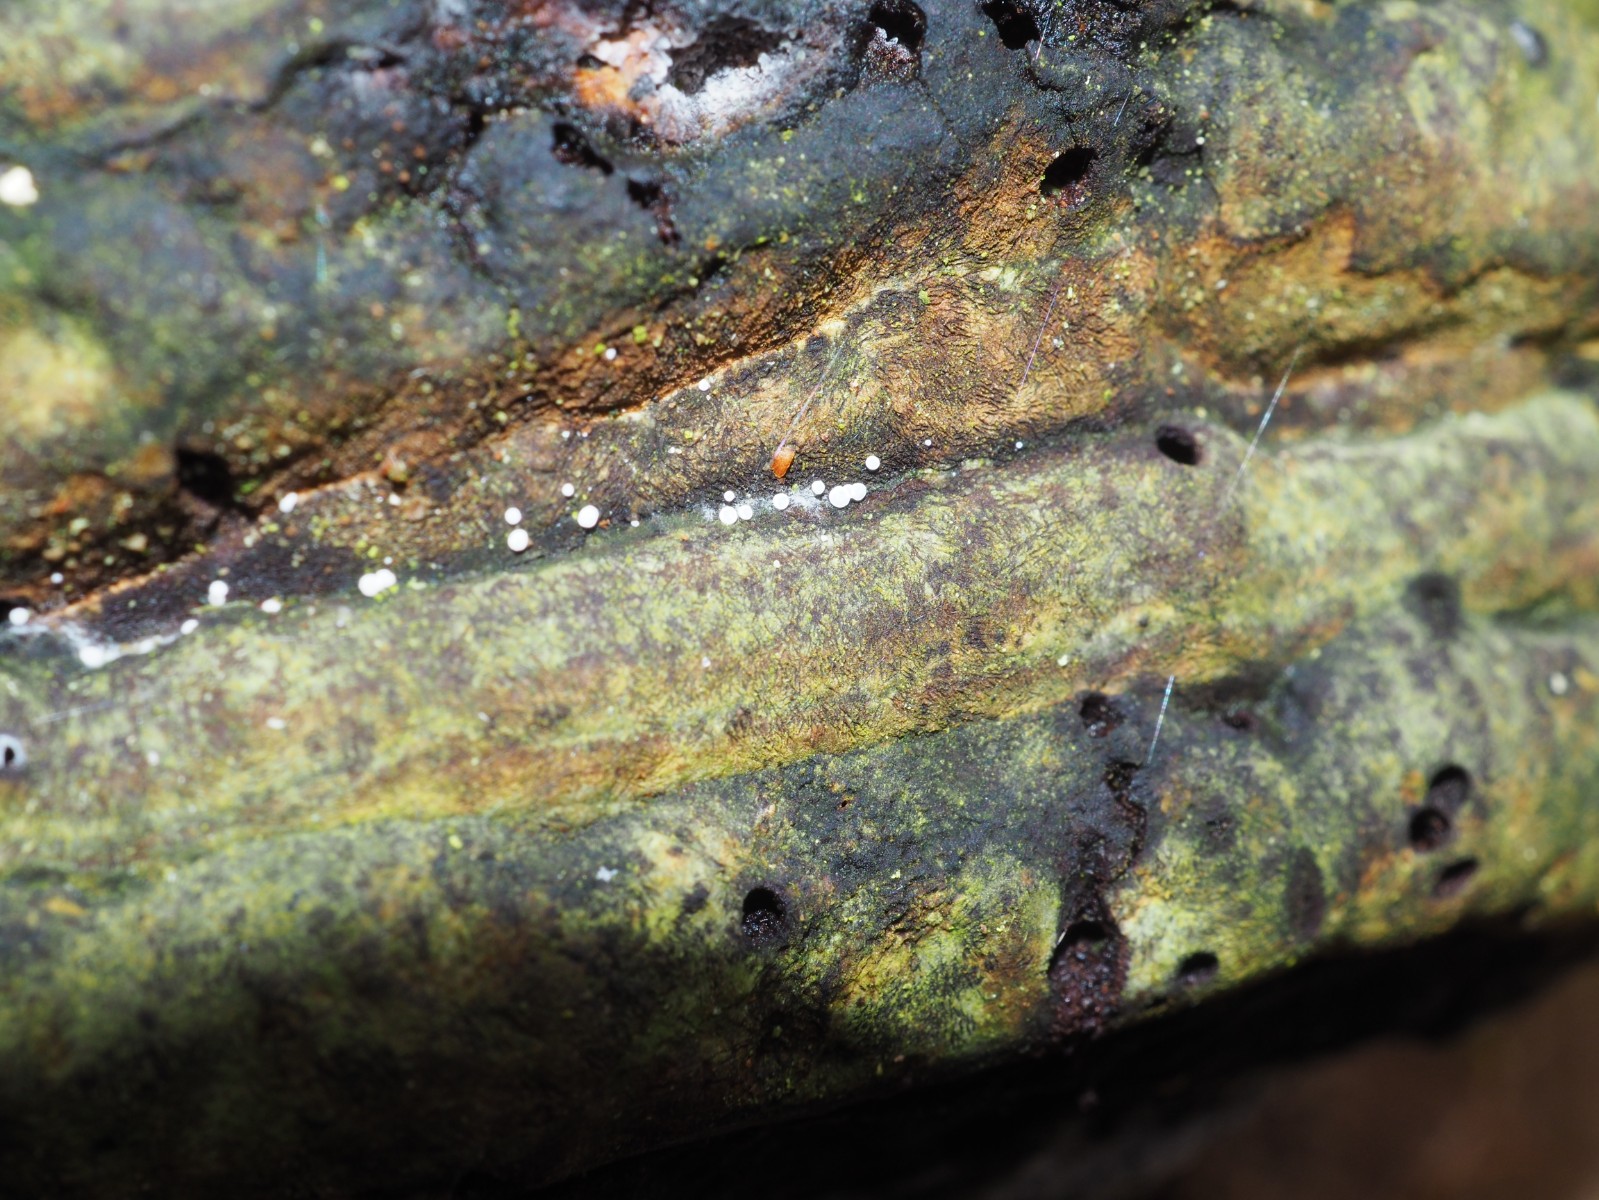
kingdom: Fungi
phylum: Ascomycota
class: Leotiomycetes
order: Helotiales
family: Hyaloscyphaceae
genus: Polydesmia
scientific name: Polydesmia pruinosa
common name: dunskive
